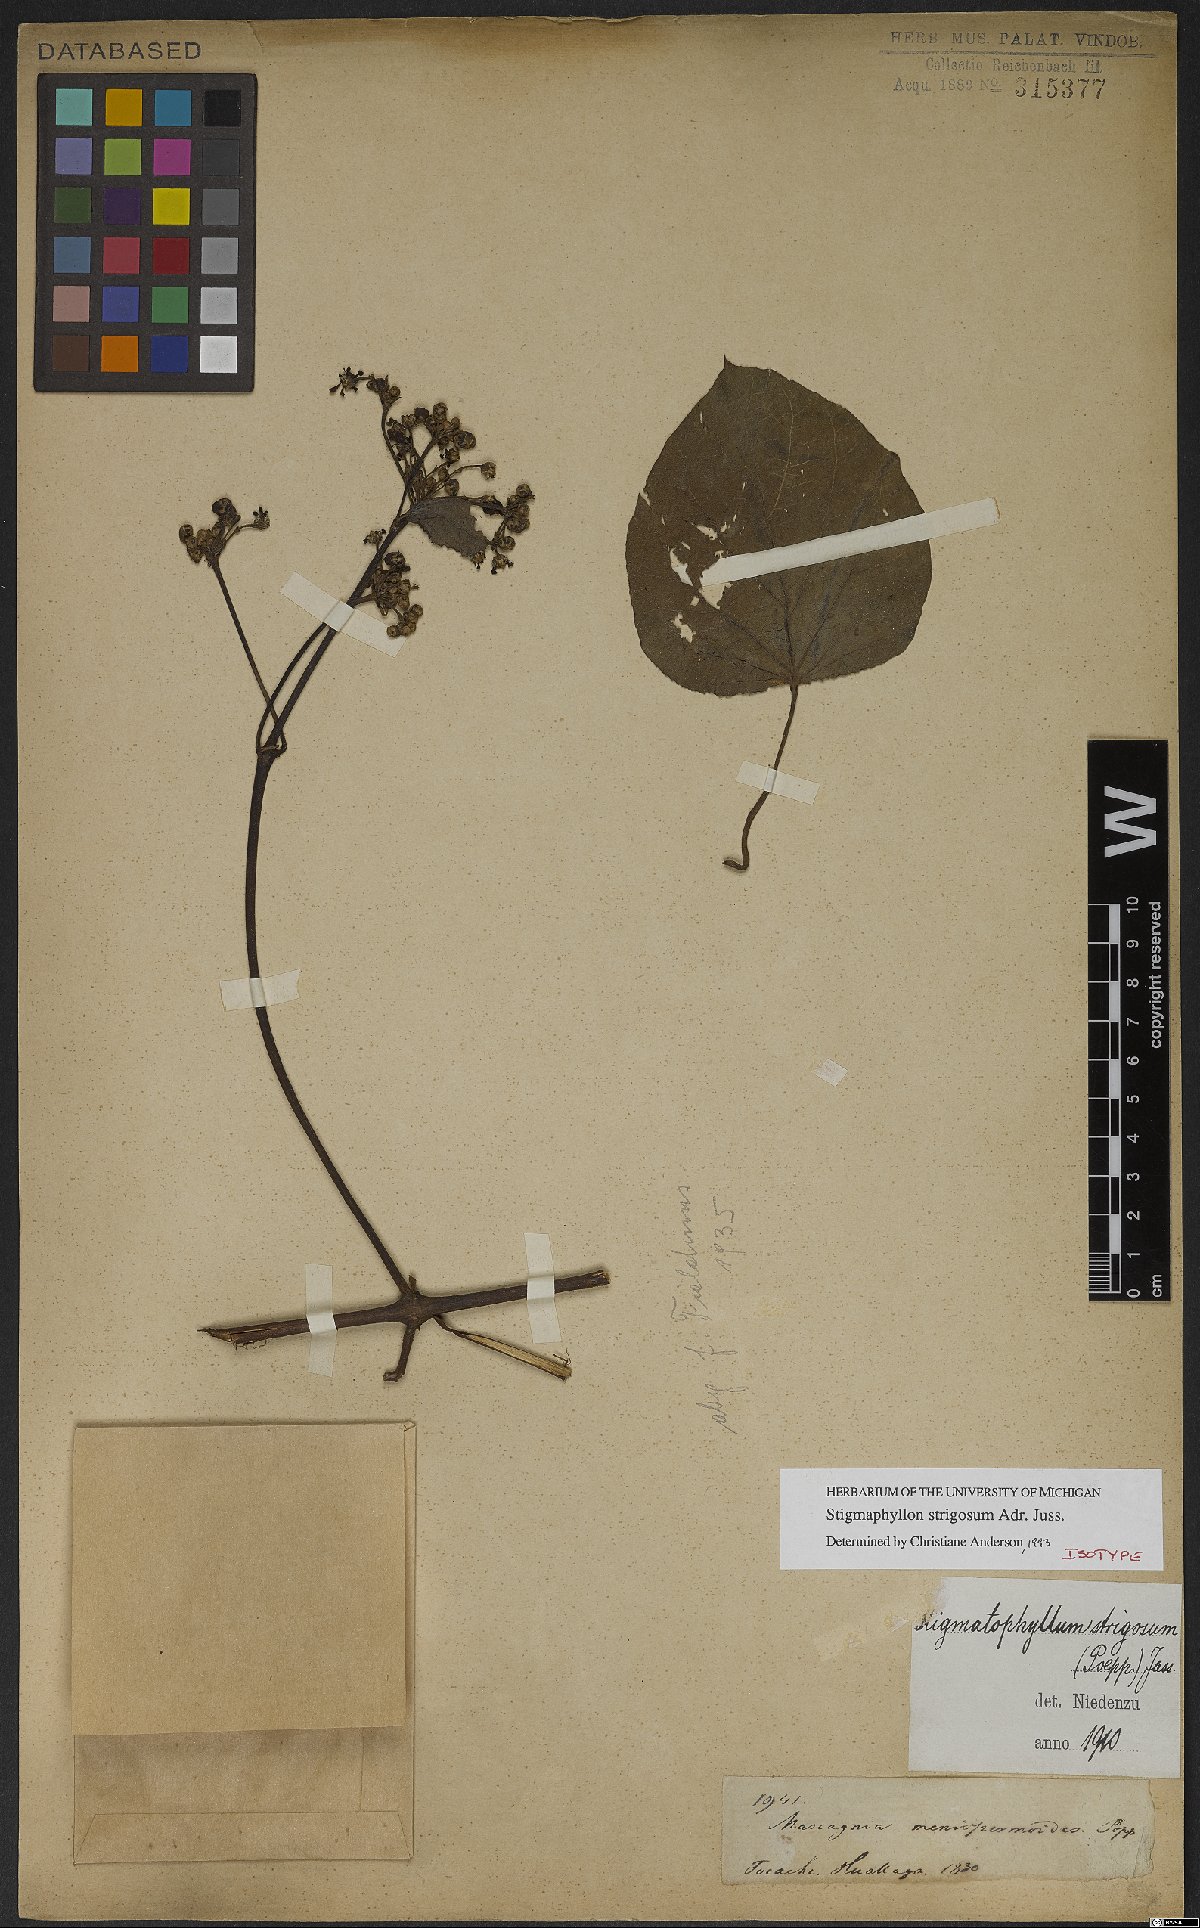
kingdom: Plantae
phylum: Tracheophyta
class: Magnoliopsida
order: Malpighiales
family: Malpighiaceae
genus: Stigmaphyllon
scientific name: Stigmaphyllon strigosum
